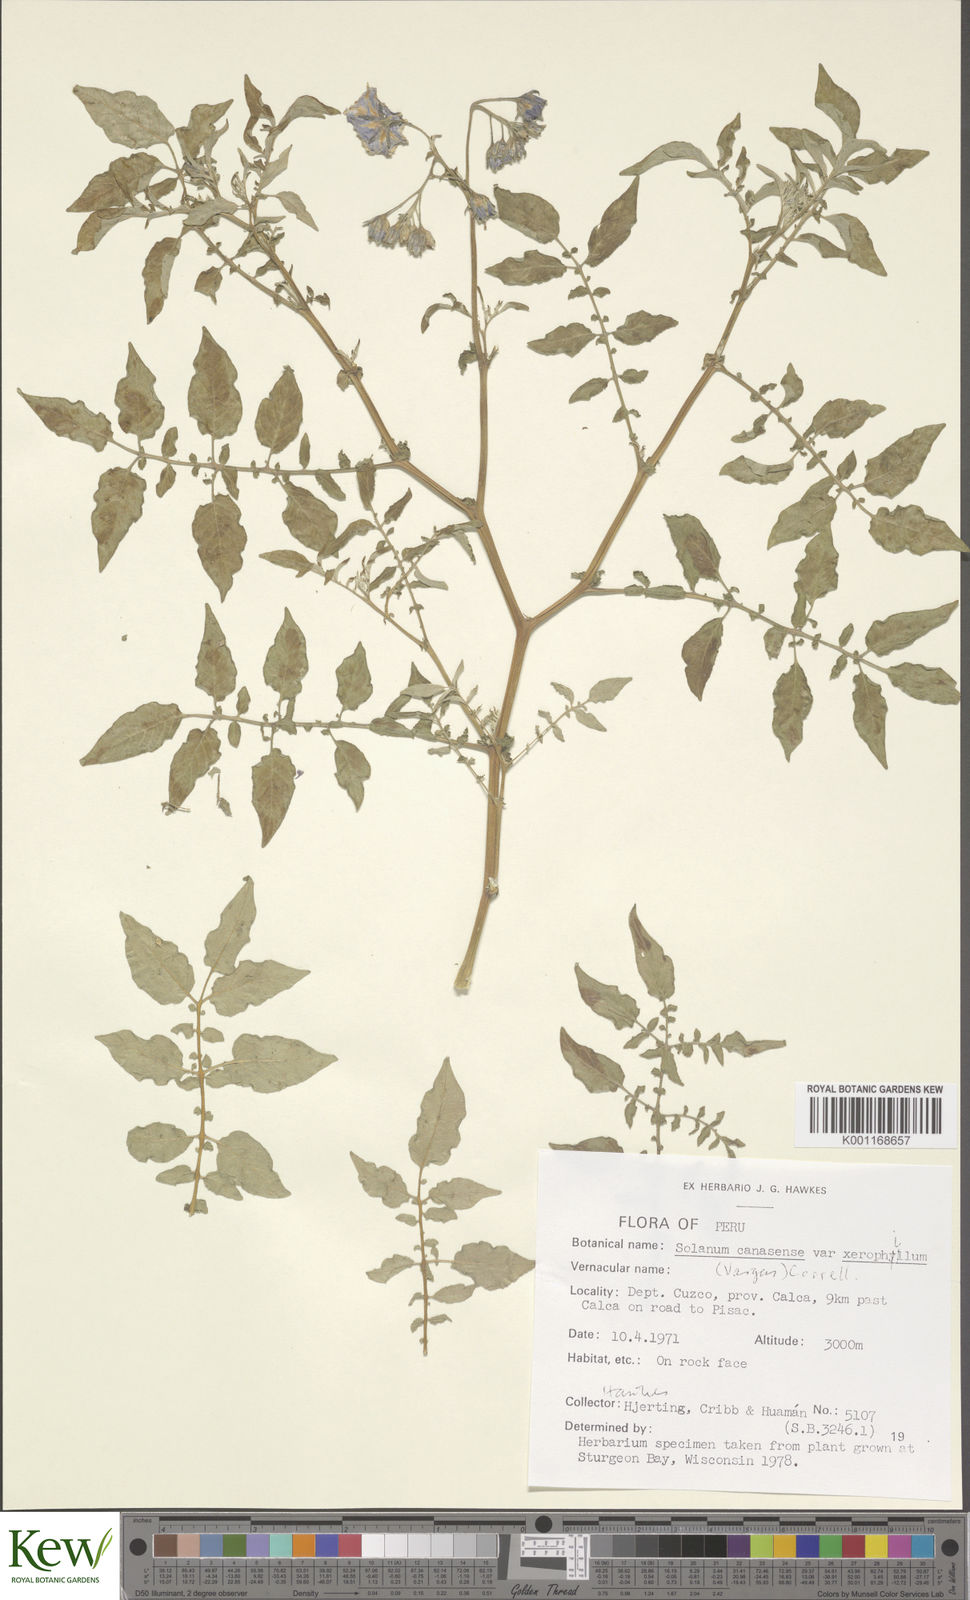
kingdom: Plantae
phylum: Tracheophyta
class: Magnoliopsida
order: Solanales
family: Solanaceae
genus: Solanum
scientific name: Solanum candolleanum
